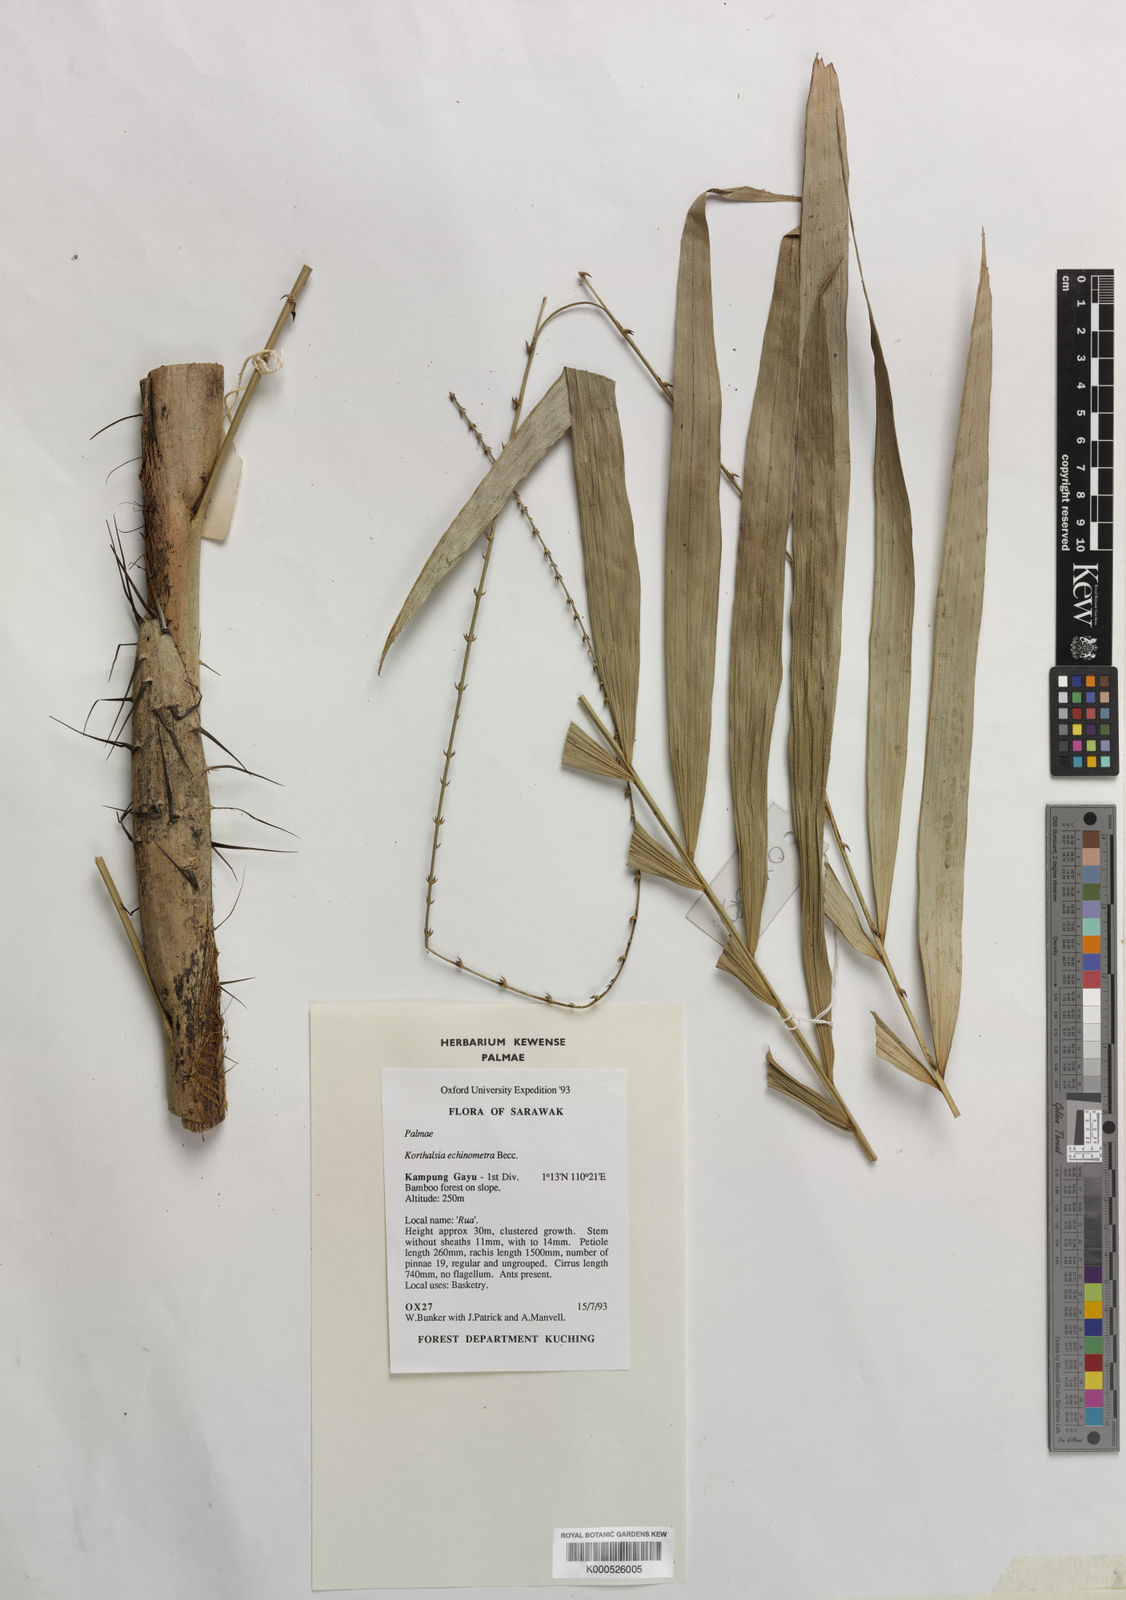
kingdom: Plantae
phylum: Tracheophyta
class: Liliopsida
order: Arecales
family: Arecaceae
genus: Korthalsia
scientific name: Korthalsia echinometra
